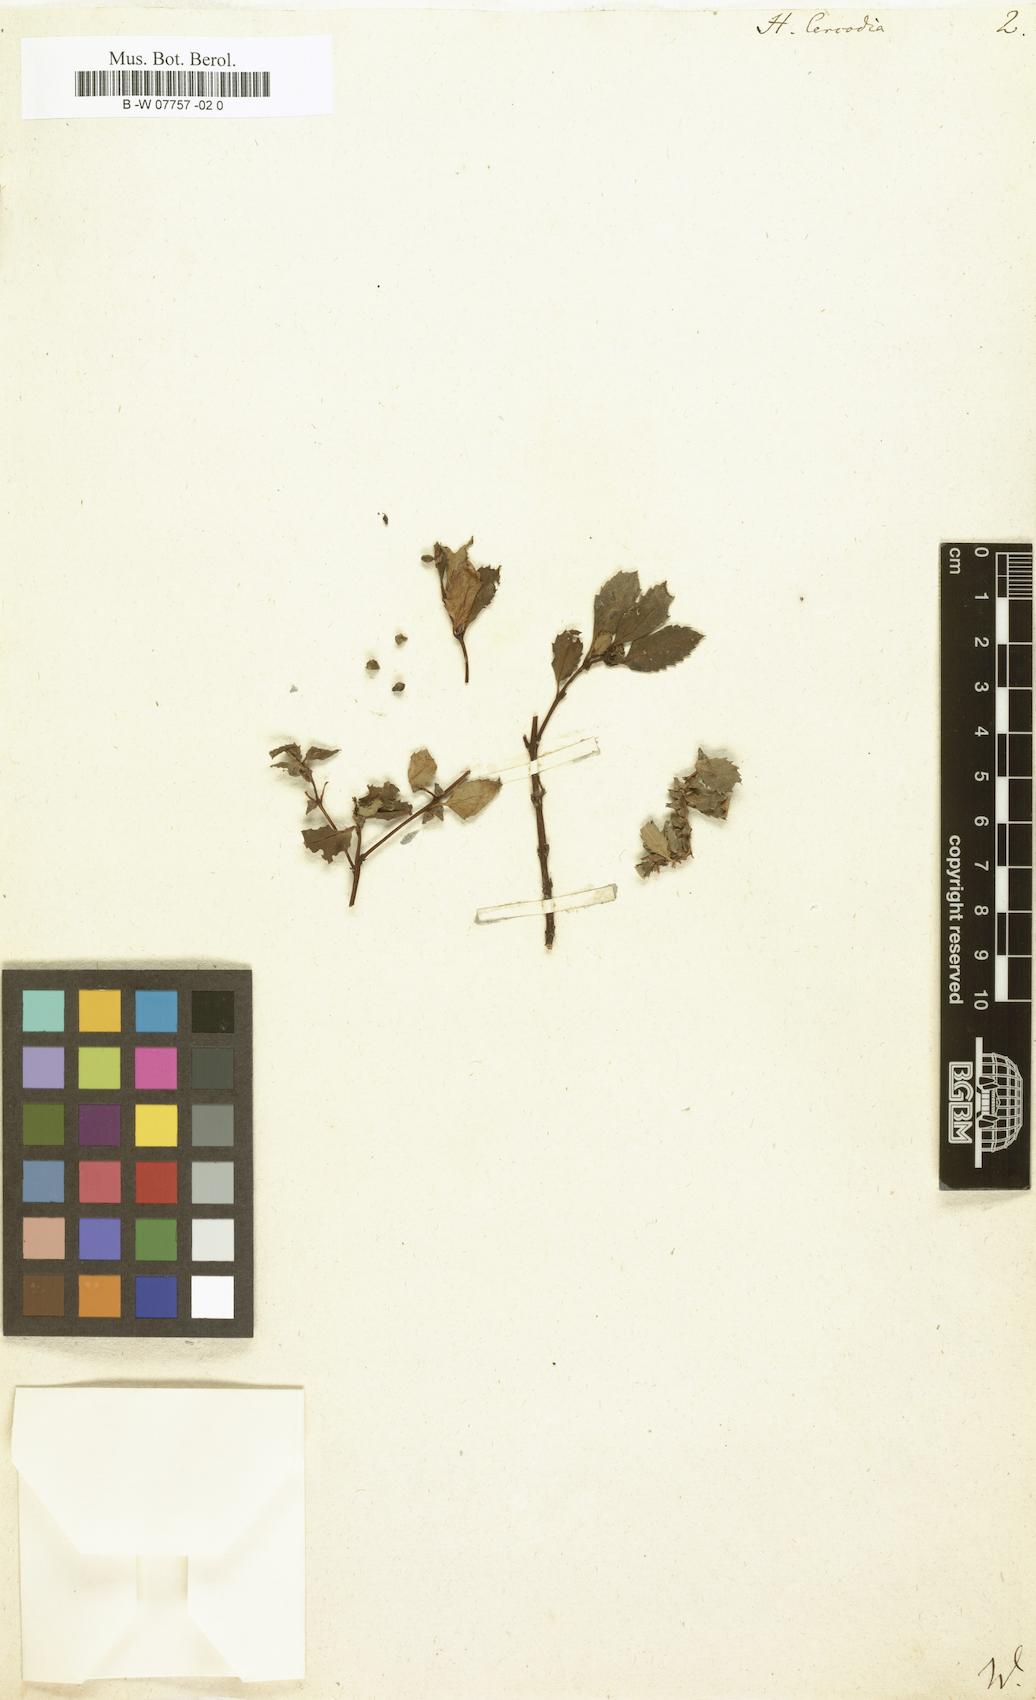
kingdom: Plantae
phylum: Tracheophyta
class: Magnoliopsida
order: Saxifragales
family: Haloragaceae
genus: Haloragis
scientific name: Haloragis erecta
